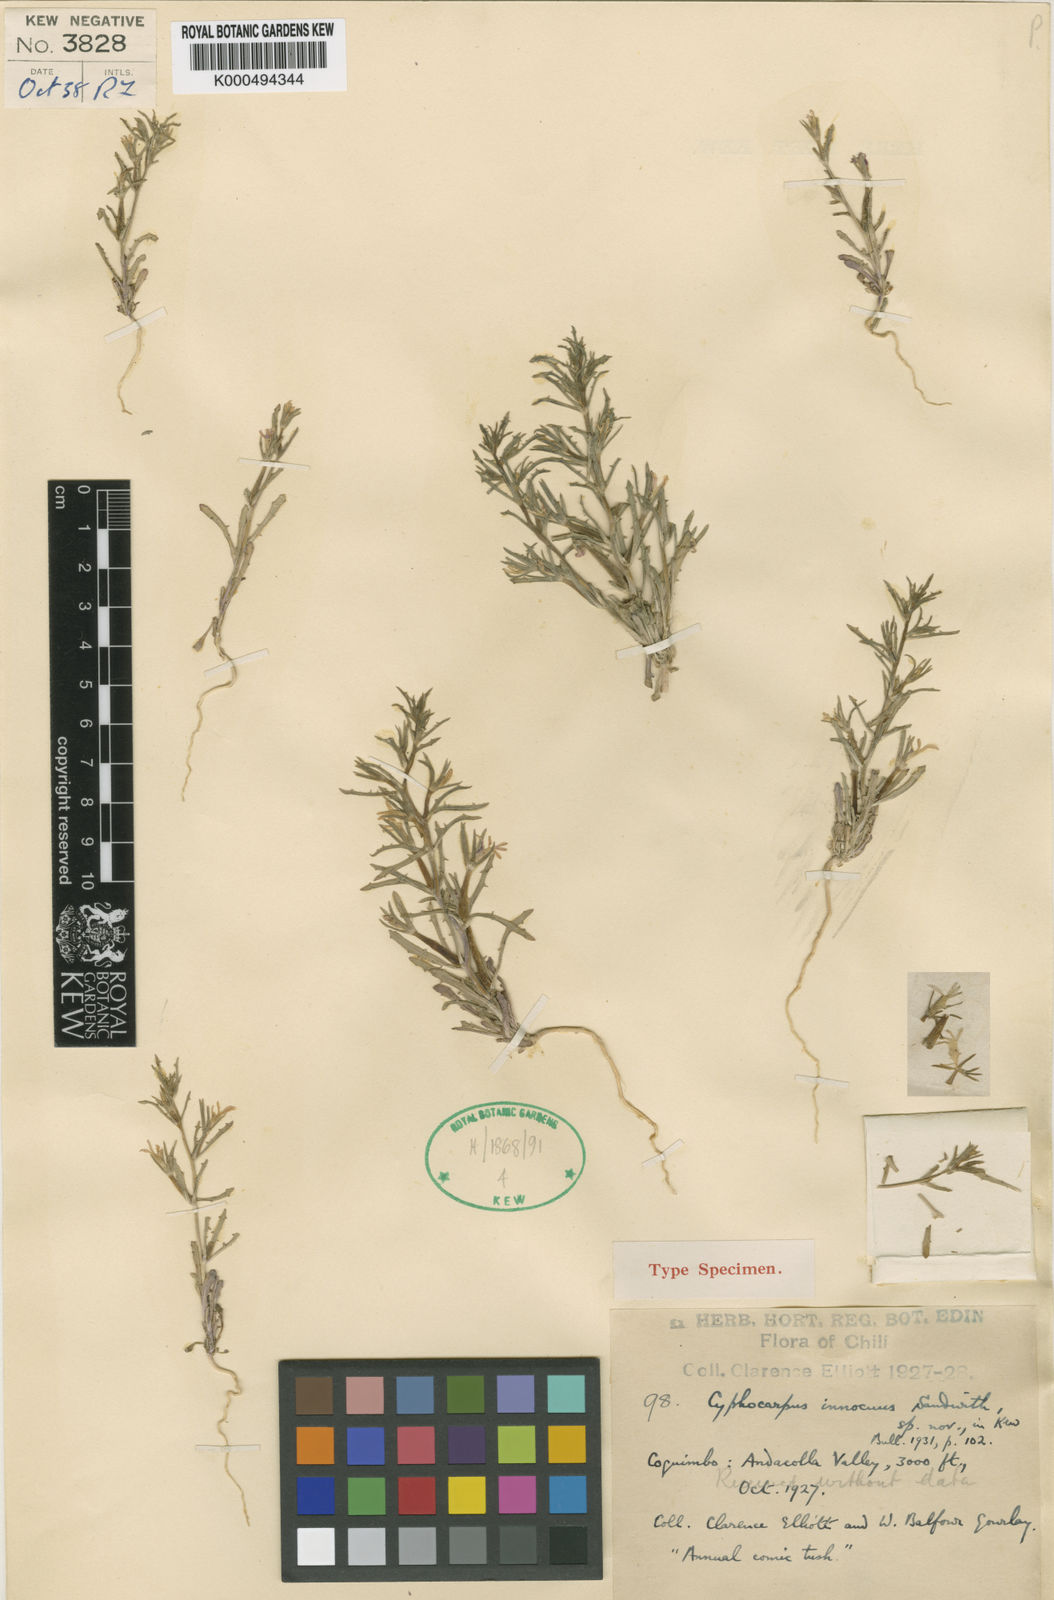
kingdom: Plantae
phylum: Tracheophyta
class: Magnoliopsida
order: Asterales
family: Campanulaceae
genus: Cyphocarpus
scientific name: Cyphocarpus innocuus
